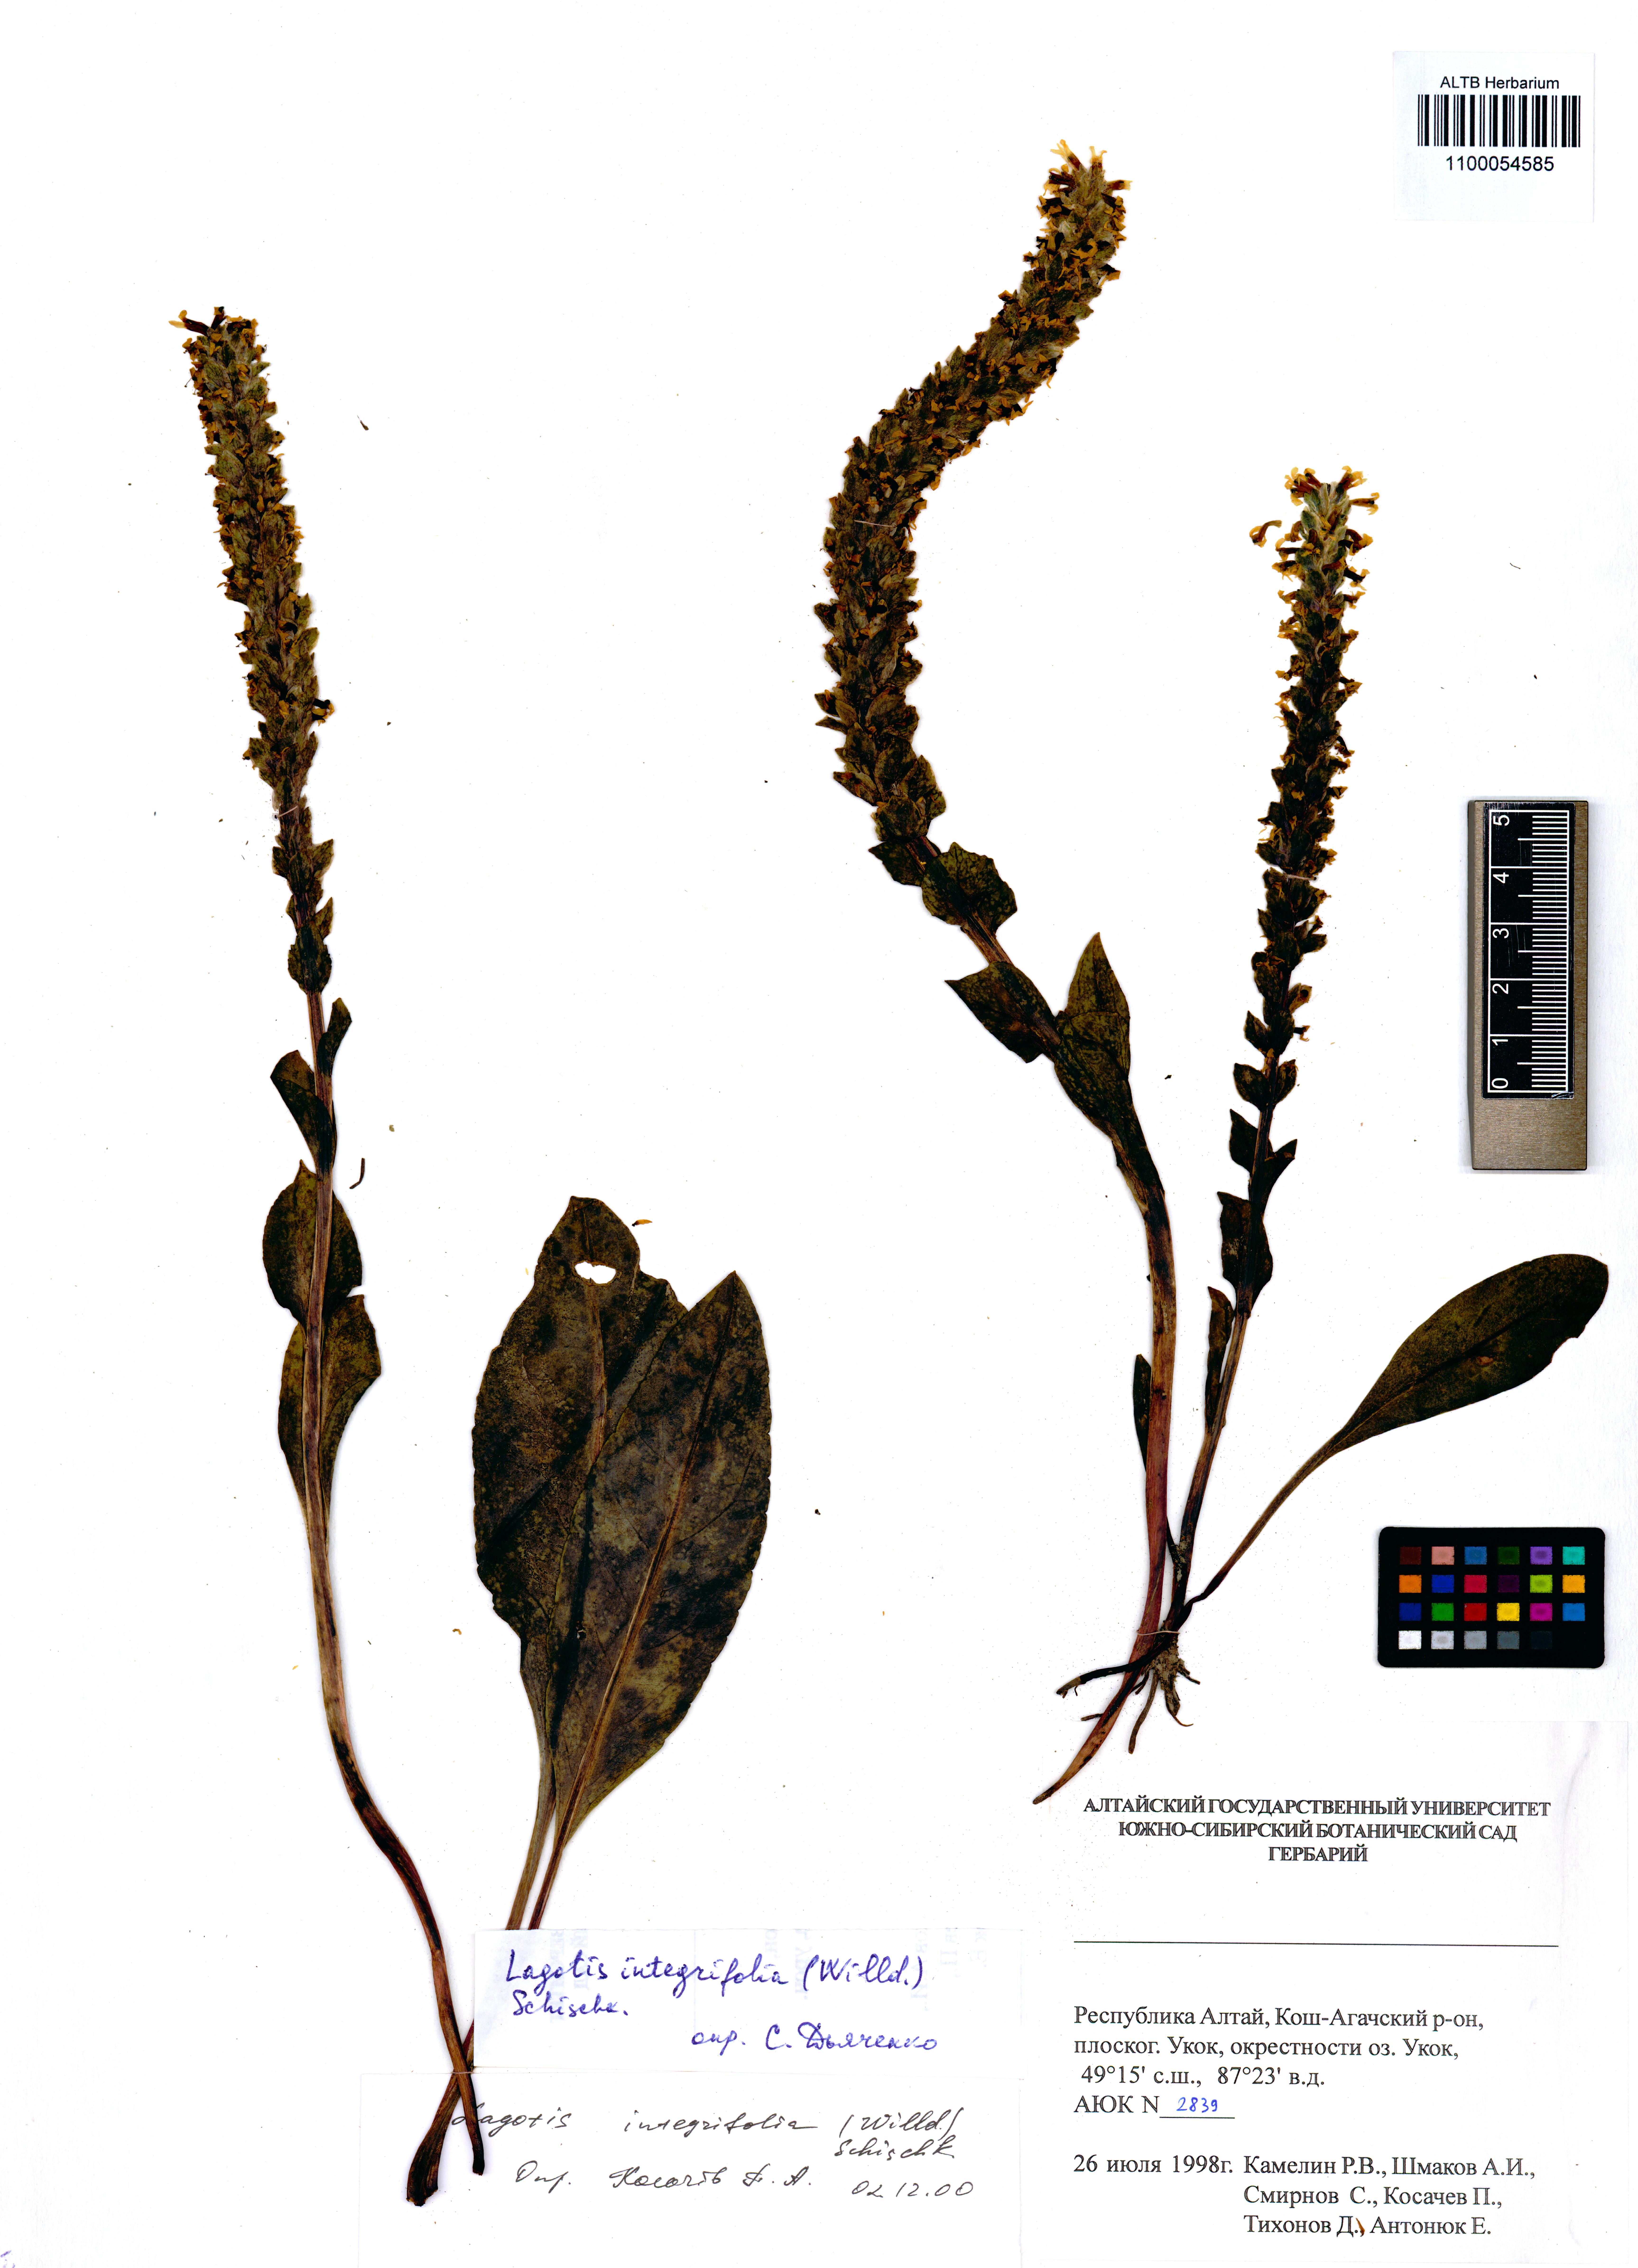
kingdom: Plantae
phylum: Tracheophyta
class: Magnoliopsida
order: Lamiales
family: Plantaginaceae
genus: Lagotis
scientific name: Lagotis integrifolia
